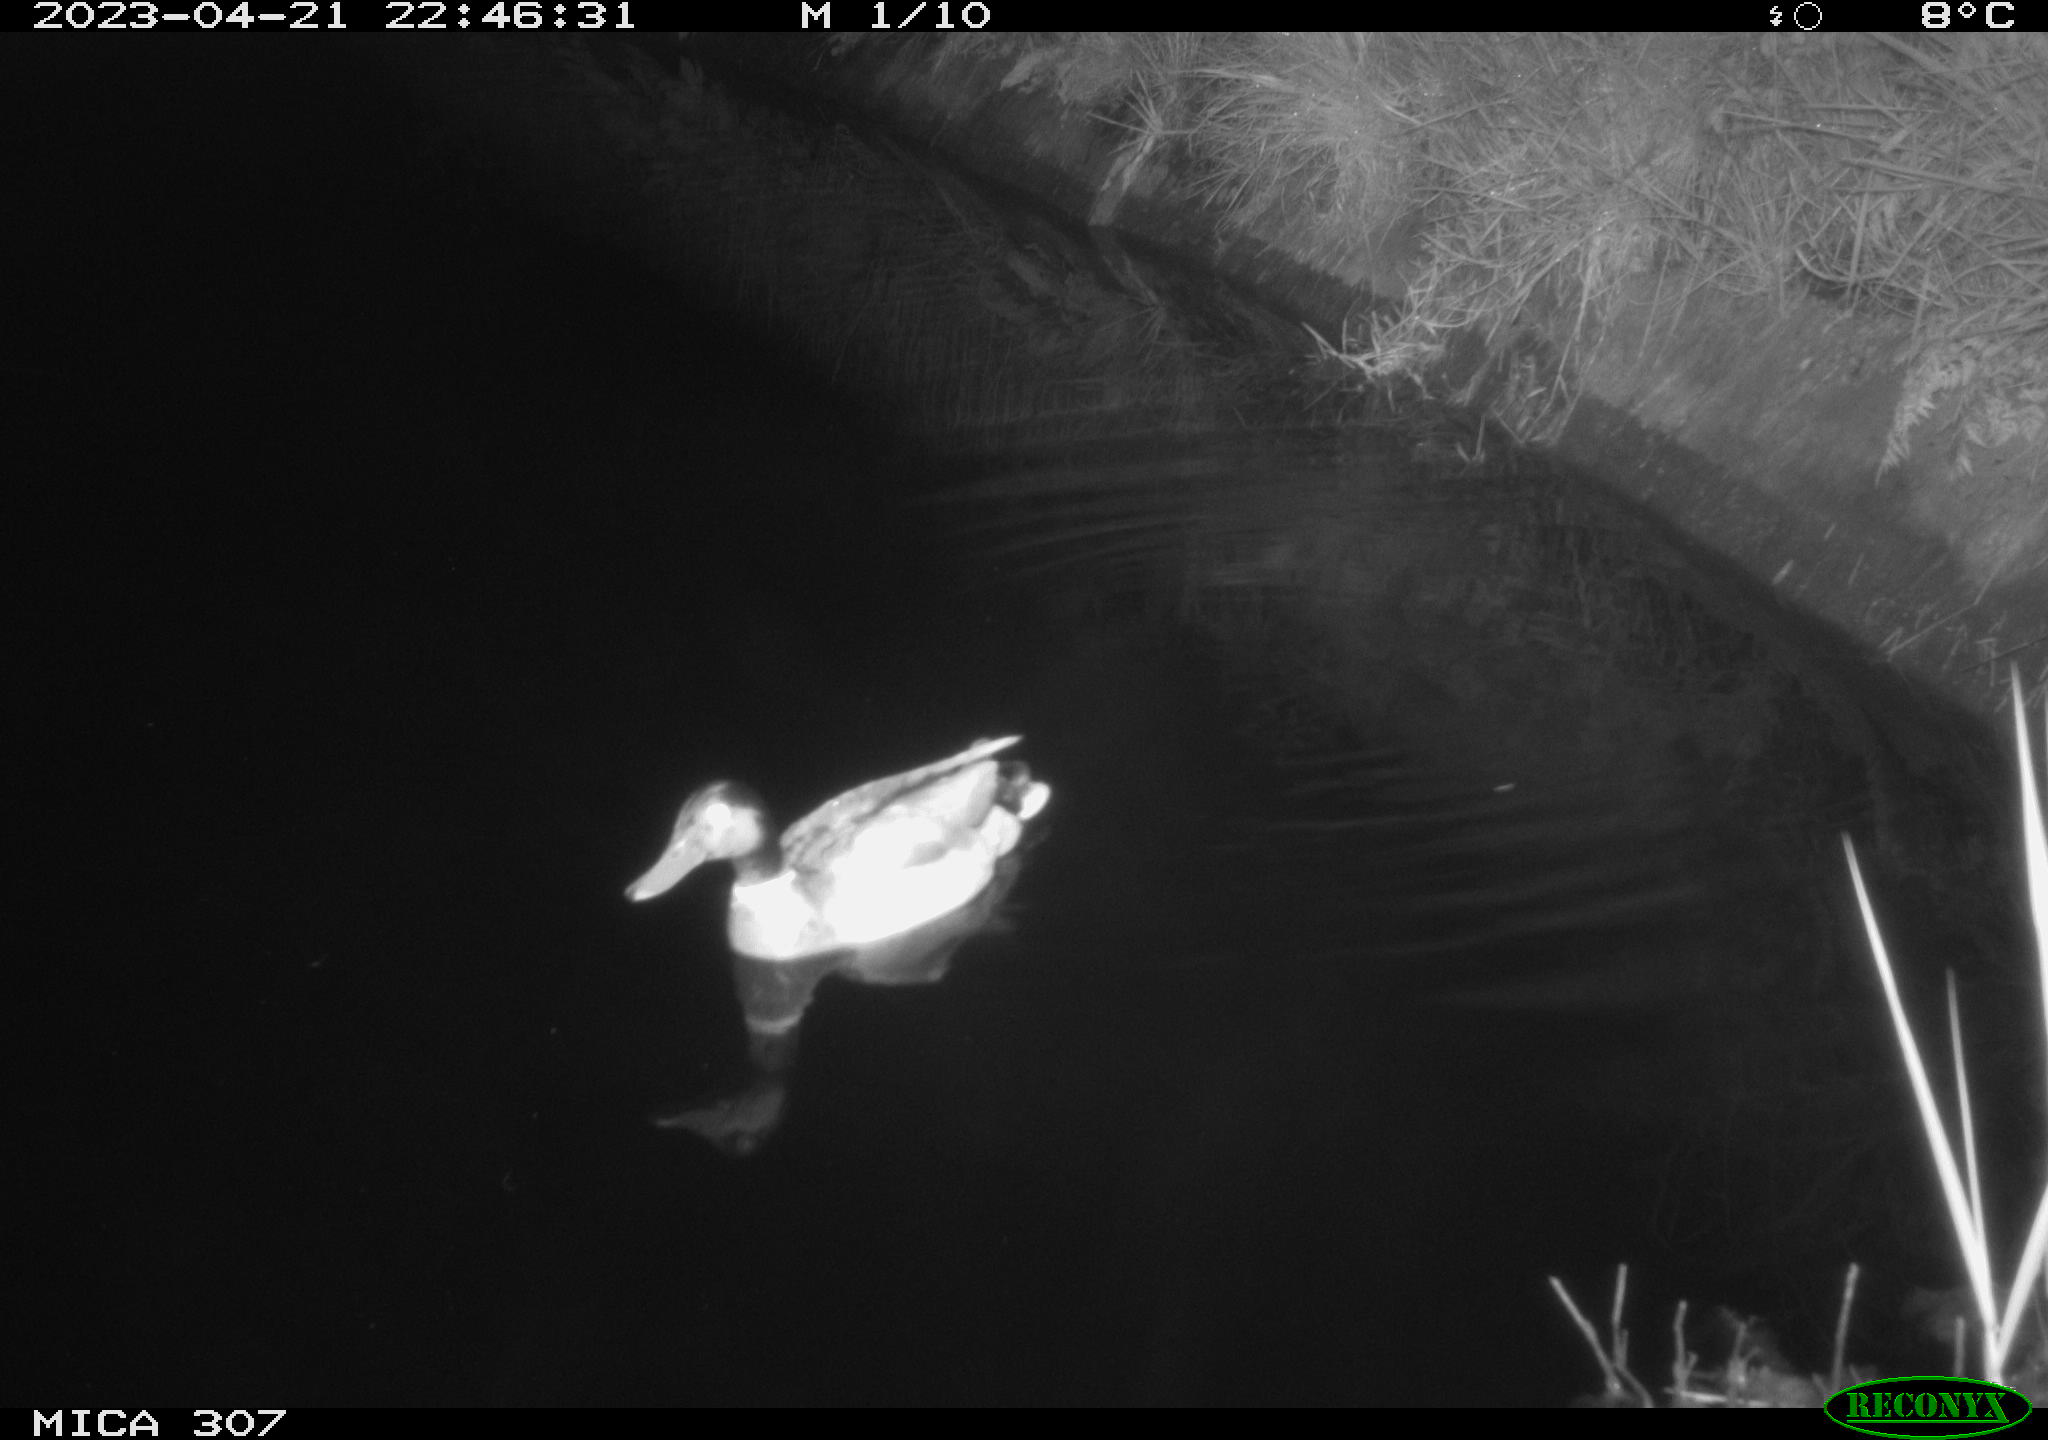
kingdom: Animalia
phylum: Chordata
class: Aves
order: Anseriformes
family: Anatidae
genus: Anas
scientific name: Anas
